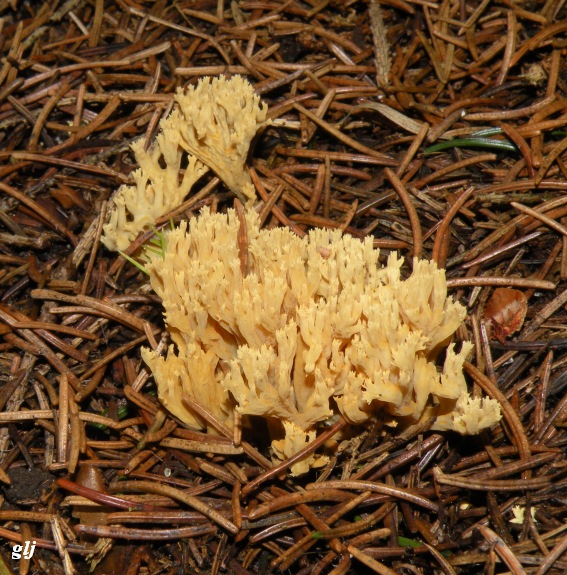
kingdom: Fungi
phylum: Basidiomycota
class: Agaricomycetes
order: Gomphales
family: Gomphaceae
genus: Phaeoclavulina
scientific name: Phaeoclavulina eumorpha
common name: gran-koralsvamp
